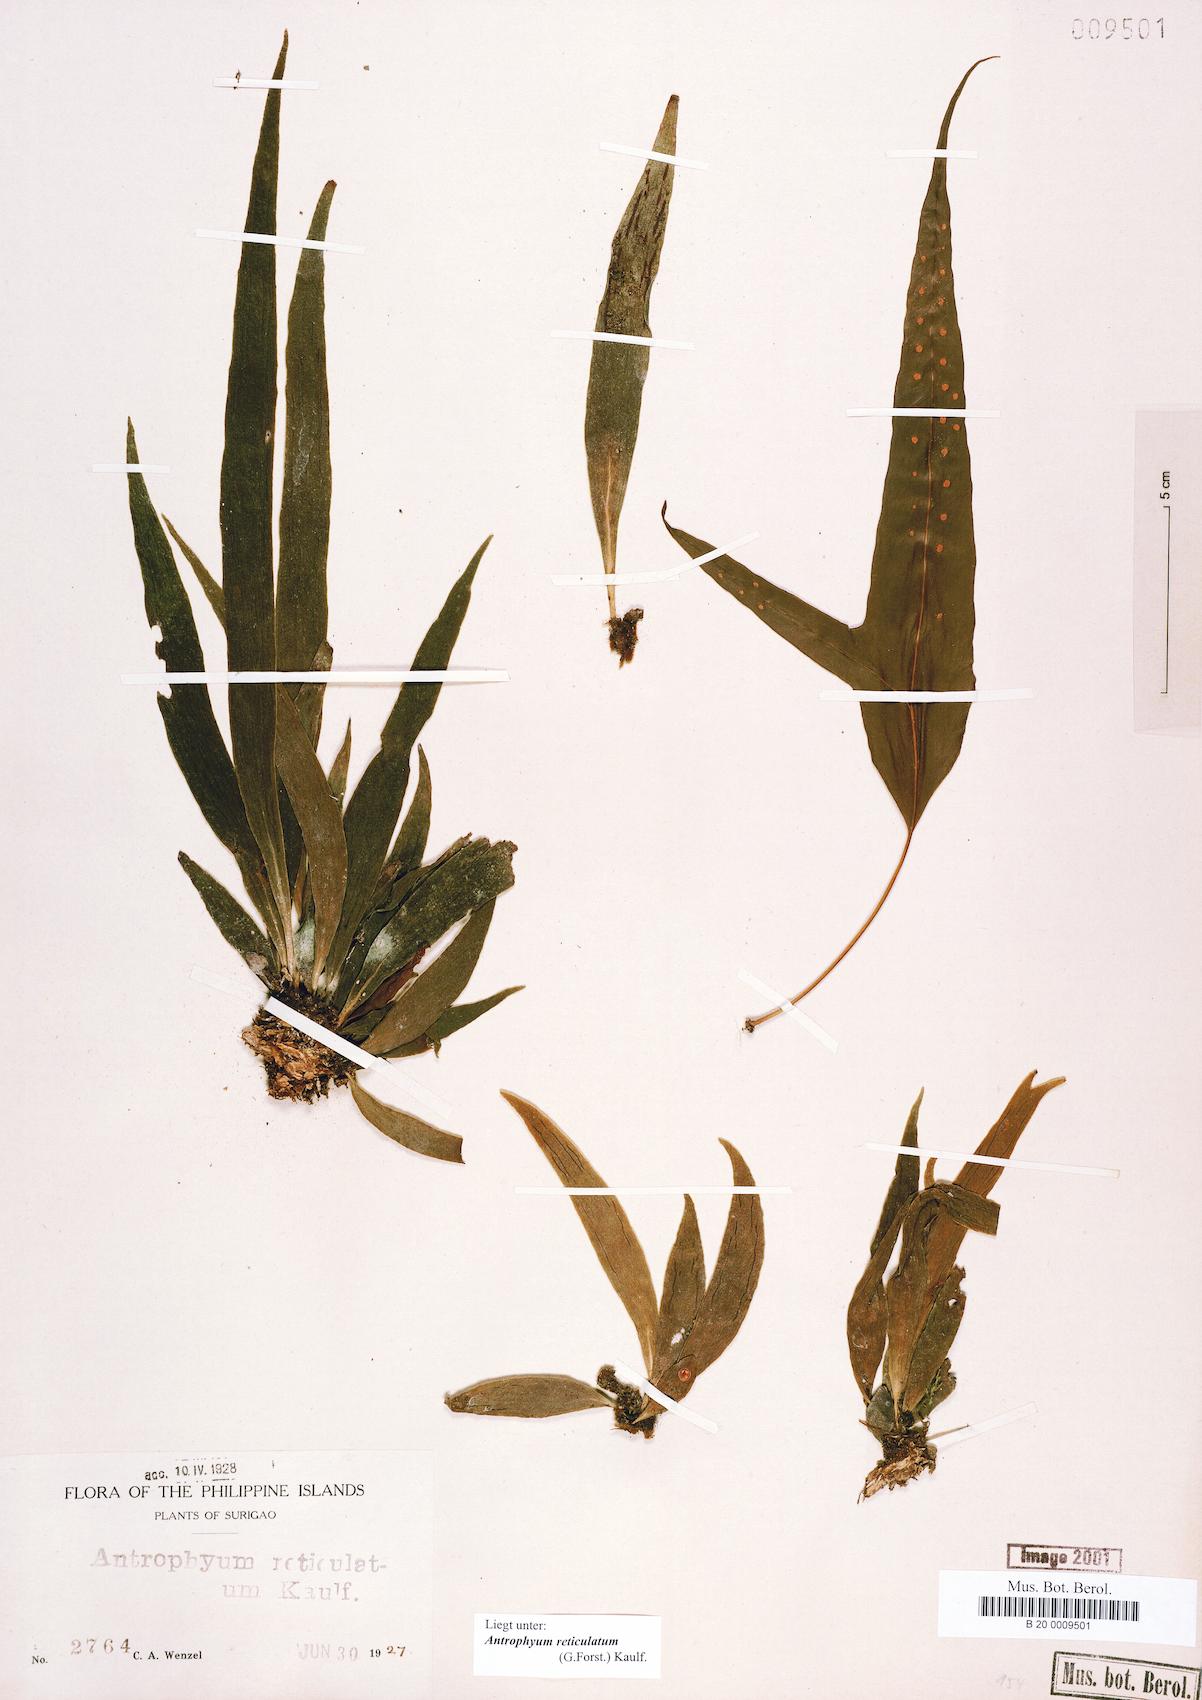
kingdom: Plantae
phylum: Tracheophyta
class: Polypodiopsida
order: Polypodiales
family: Pteridaceae
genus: Antrophyum
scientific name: Antrophyum reticulatum
